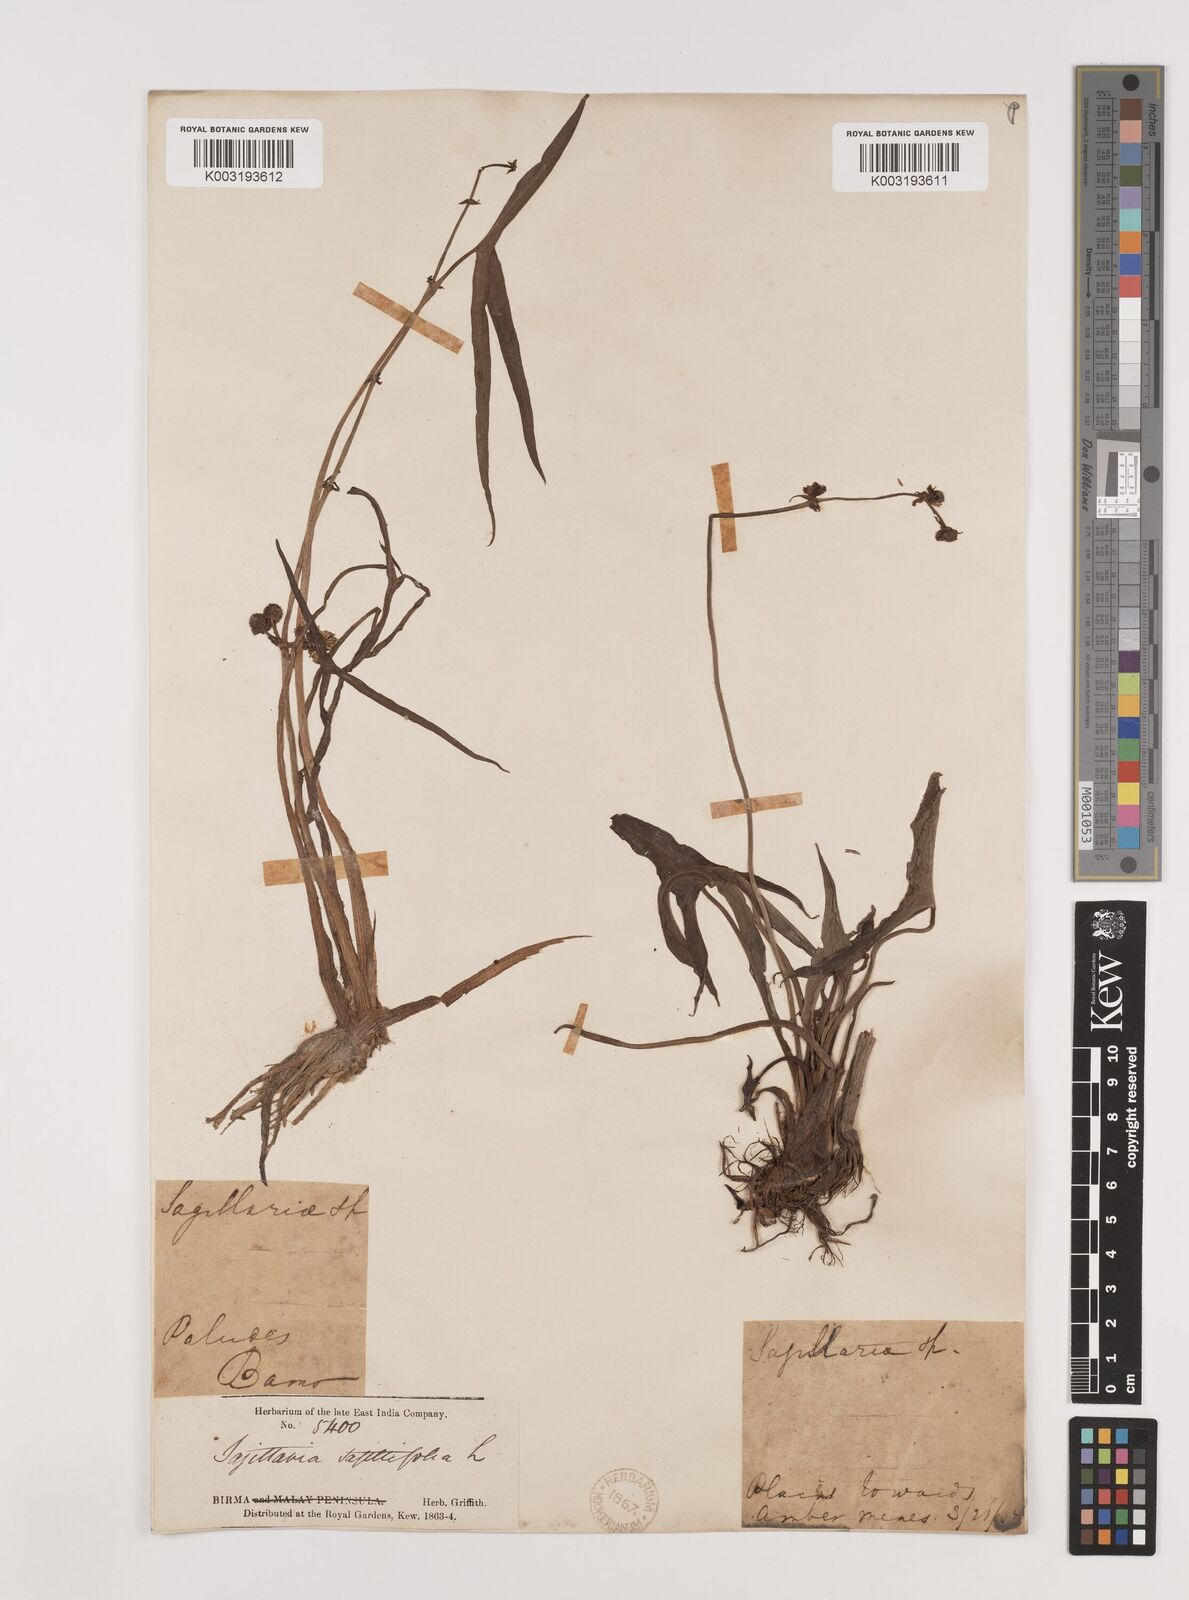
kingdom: Plantae
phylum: Tracheophyta
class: Liliopsida
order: Alismatales
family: Alismataceae
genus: Sagittaria
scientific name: Sagittaria sagittifolia
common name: Arrowhead
